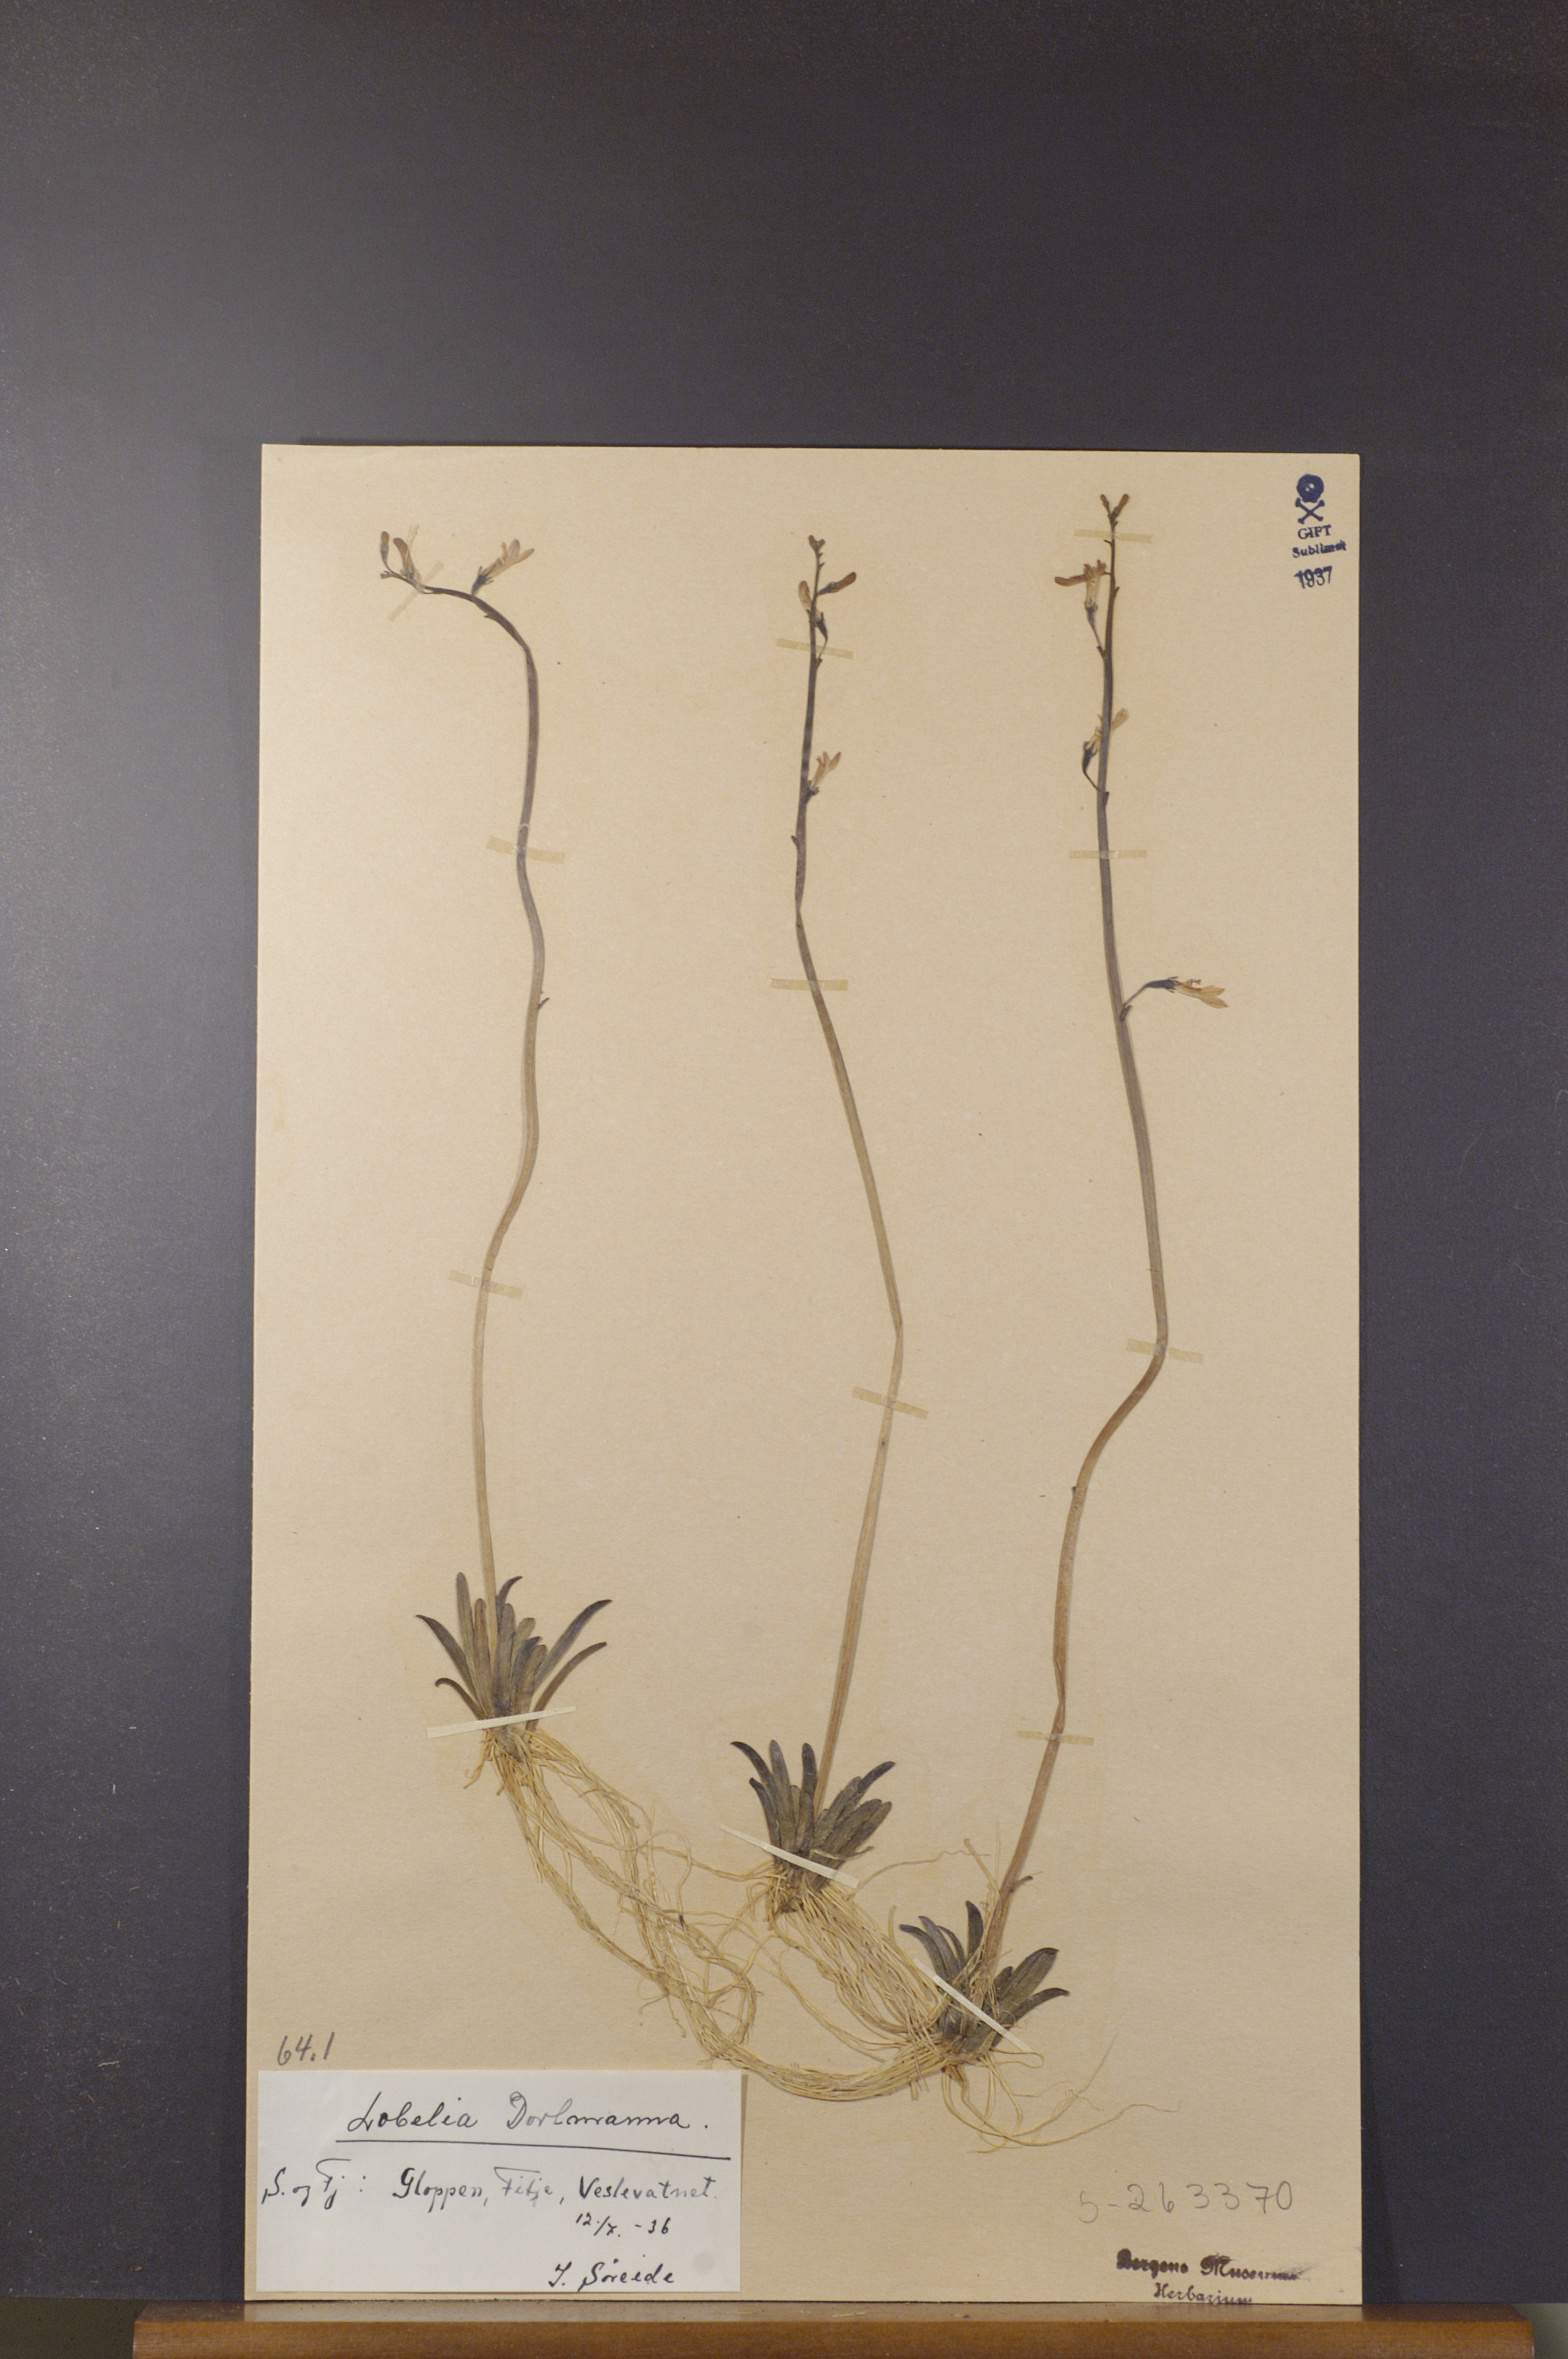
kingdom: Plantae
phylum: Tracheophyta
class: Magnoliopsida
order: Asterales
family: Campanulaceae
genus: Lobelia
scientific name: Lobelia dortmanna
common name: Water lobelia
